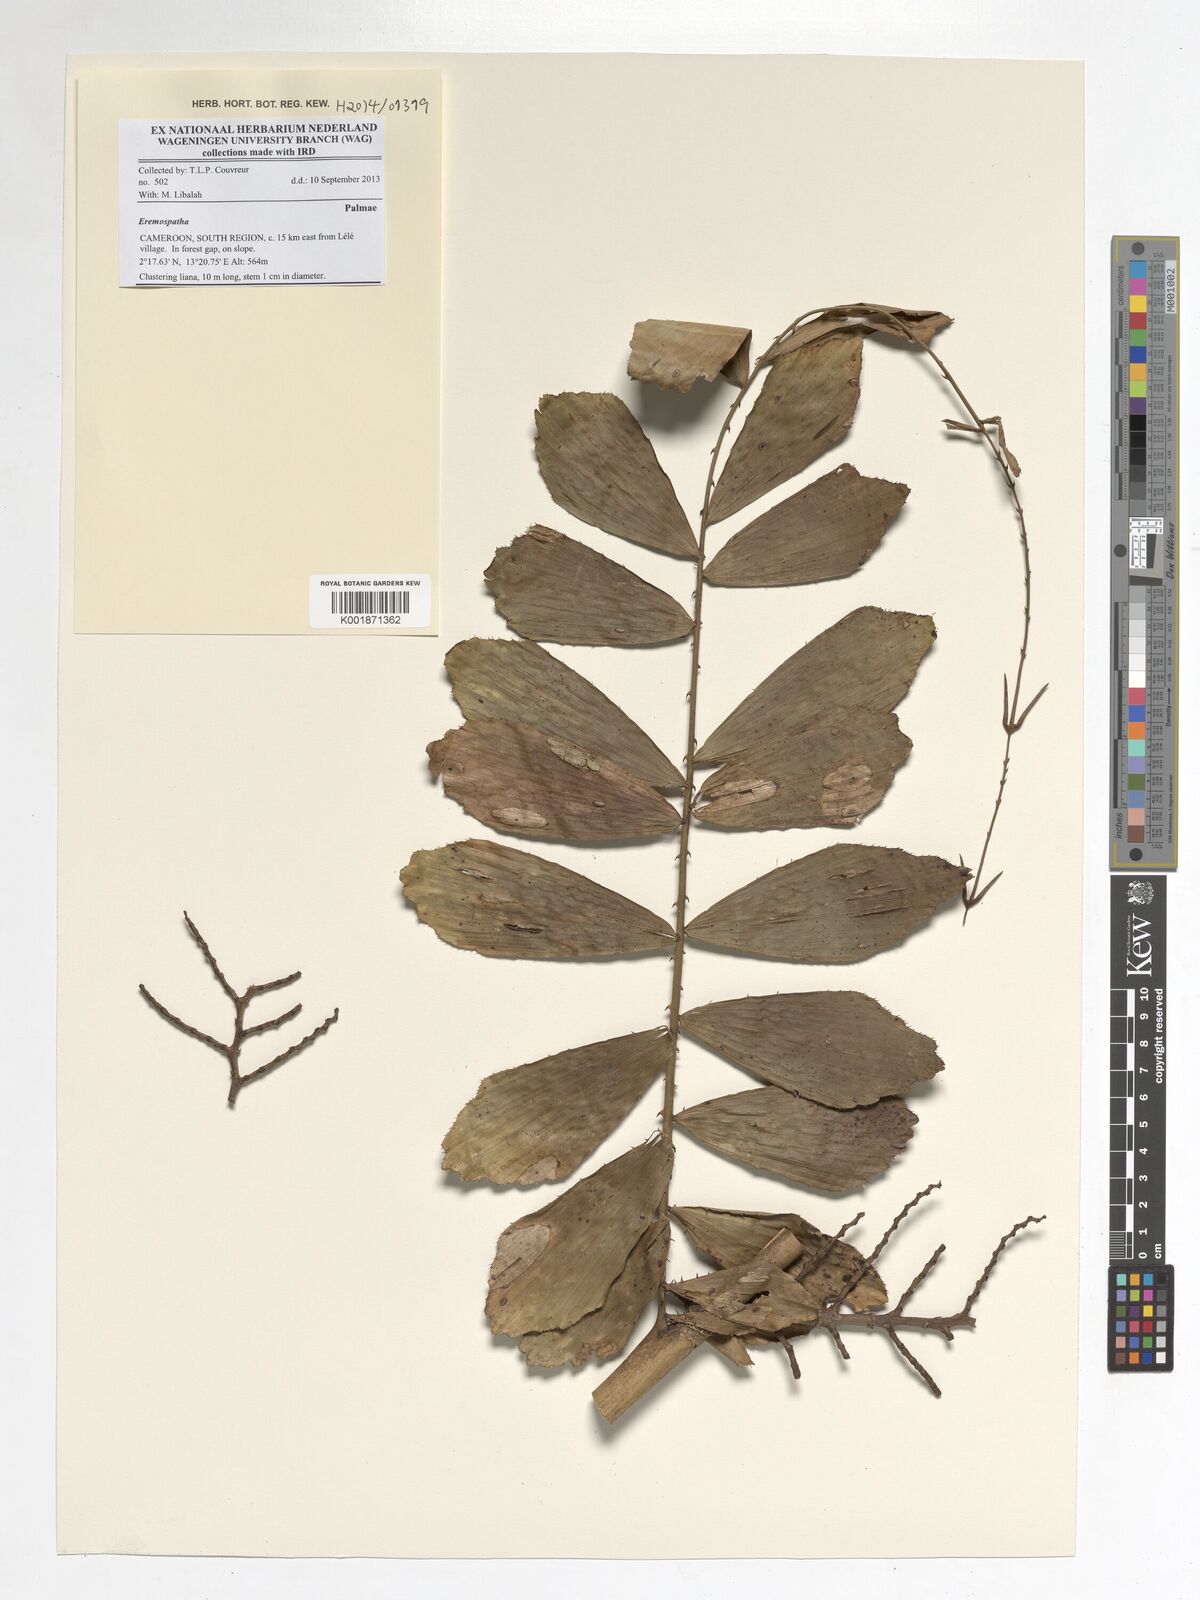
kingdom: Plantae
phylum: Tracheophyta
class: Liliopsida
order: Arecales
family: Arecaceae
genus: Eremospatha
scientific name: Eremospatha
